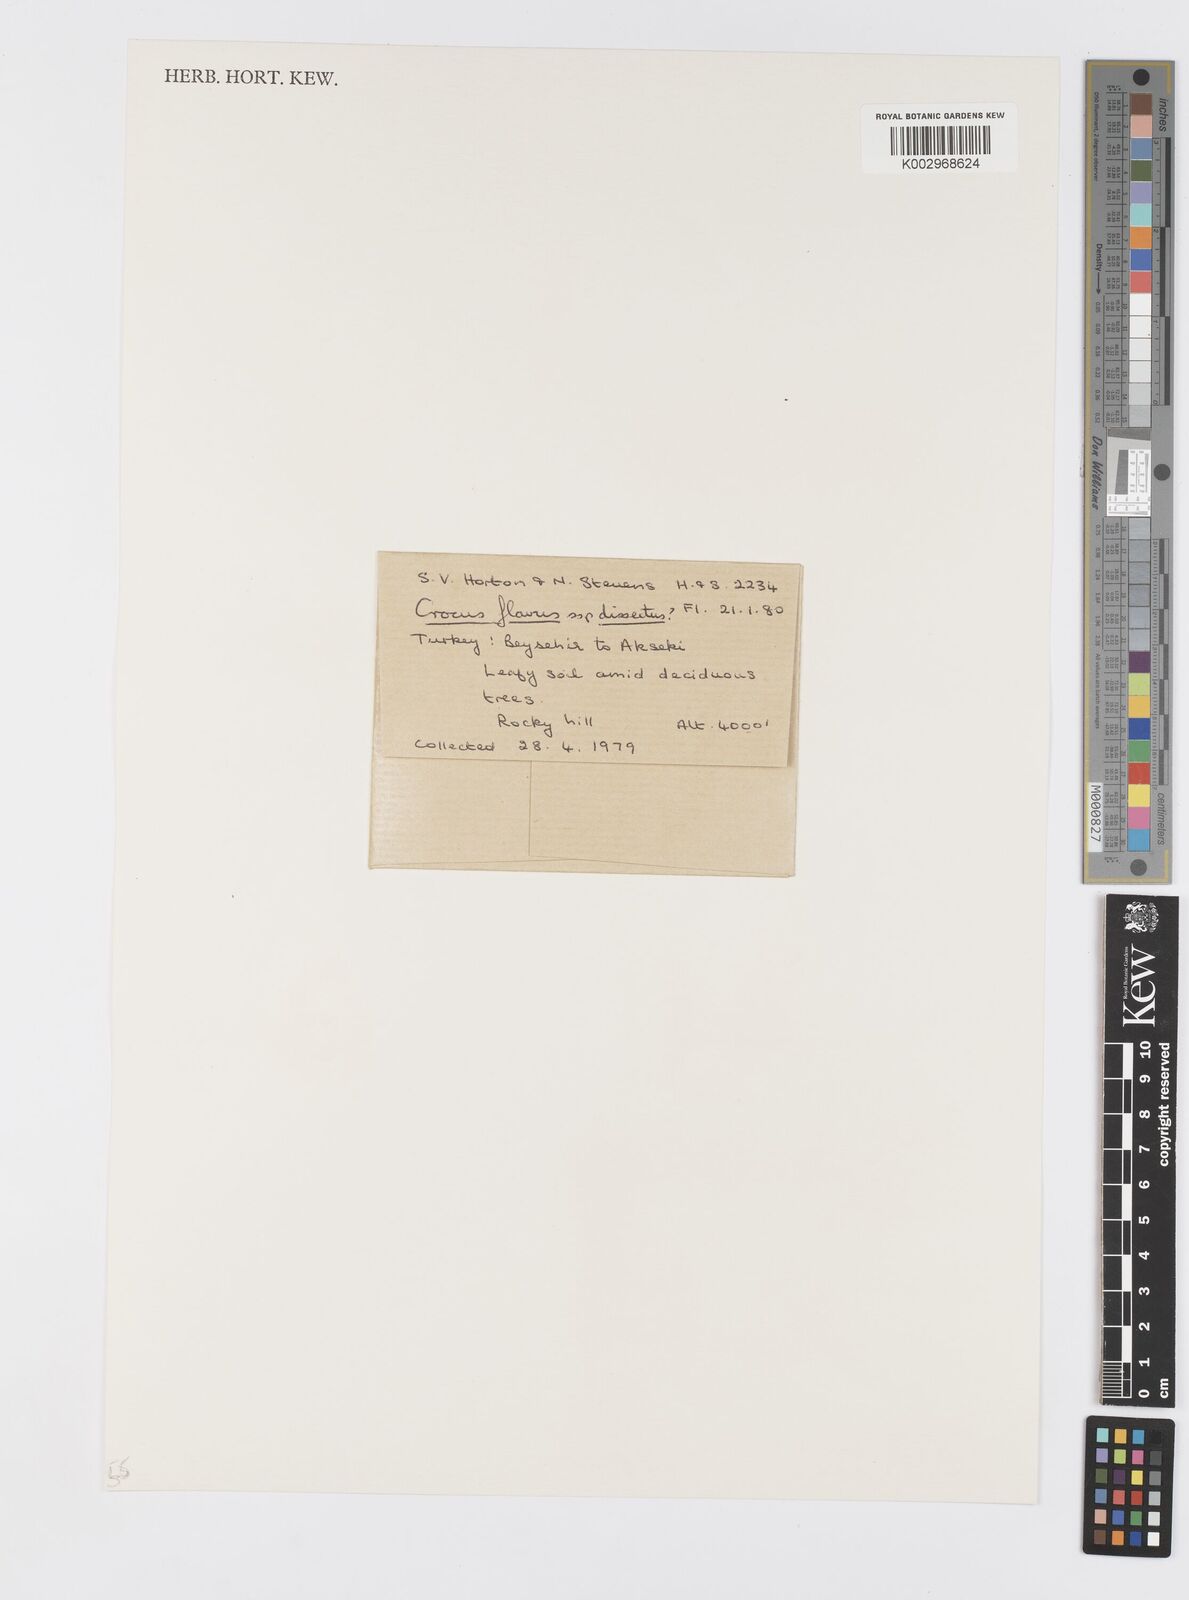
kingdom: Plantae
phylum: Tracheophyta
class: Liliopsida
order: Asparagales
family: Iridaceae
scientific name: Iridaceae
